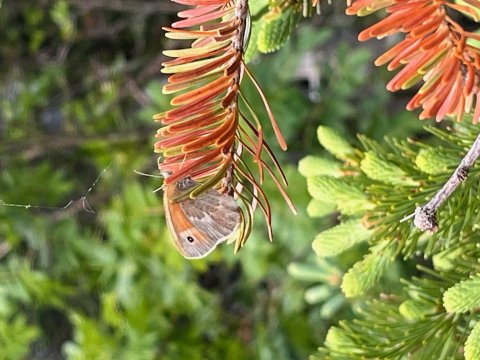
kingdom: Animalia
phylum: Arthropoda
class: Insecta
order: Lepidoptera
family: Nymphalidae
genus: Coenonympha
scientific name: Coenonympha tullia
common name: Large Heath
